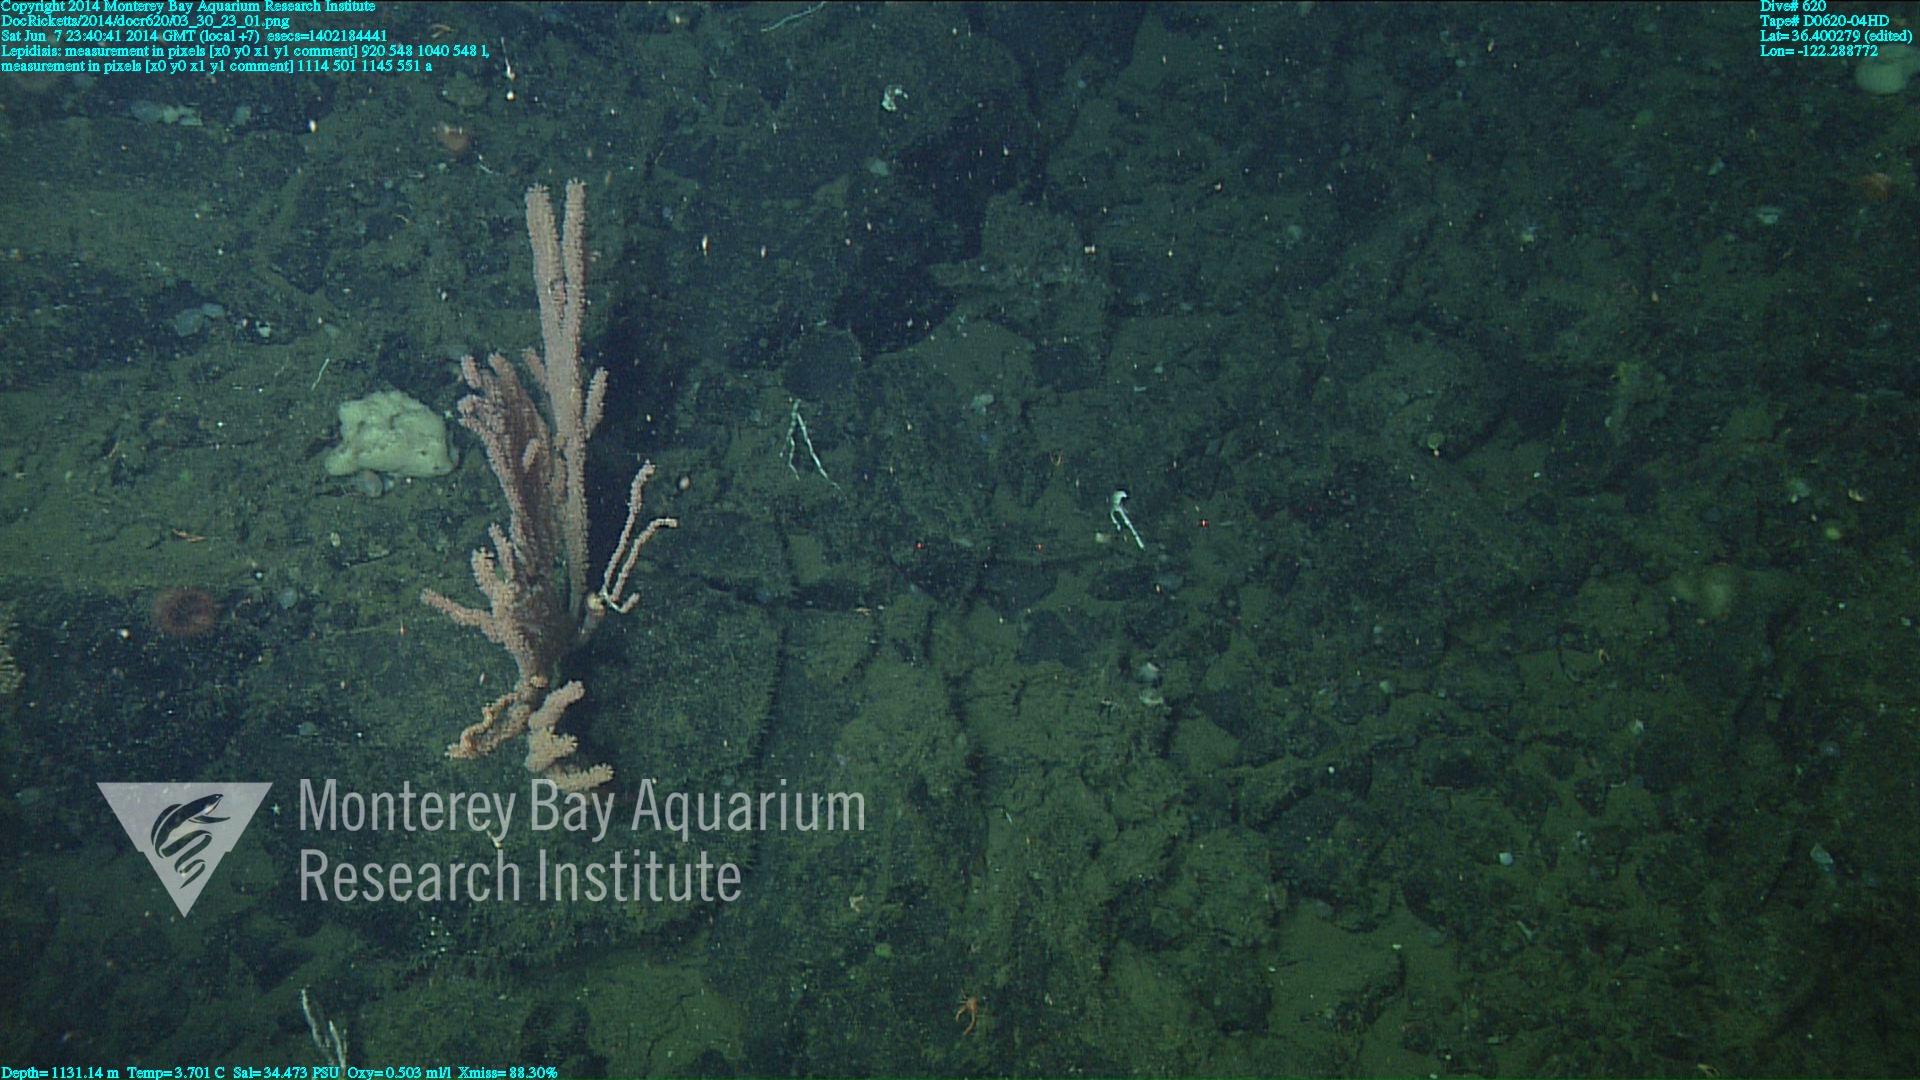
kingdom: Animalia
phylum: Cnidaria
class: Anthozoa
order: Scleralcyonacea
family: Keratoisididae
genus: Lepidisis
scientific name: Lepidisis
